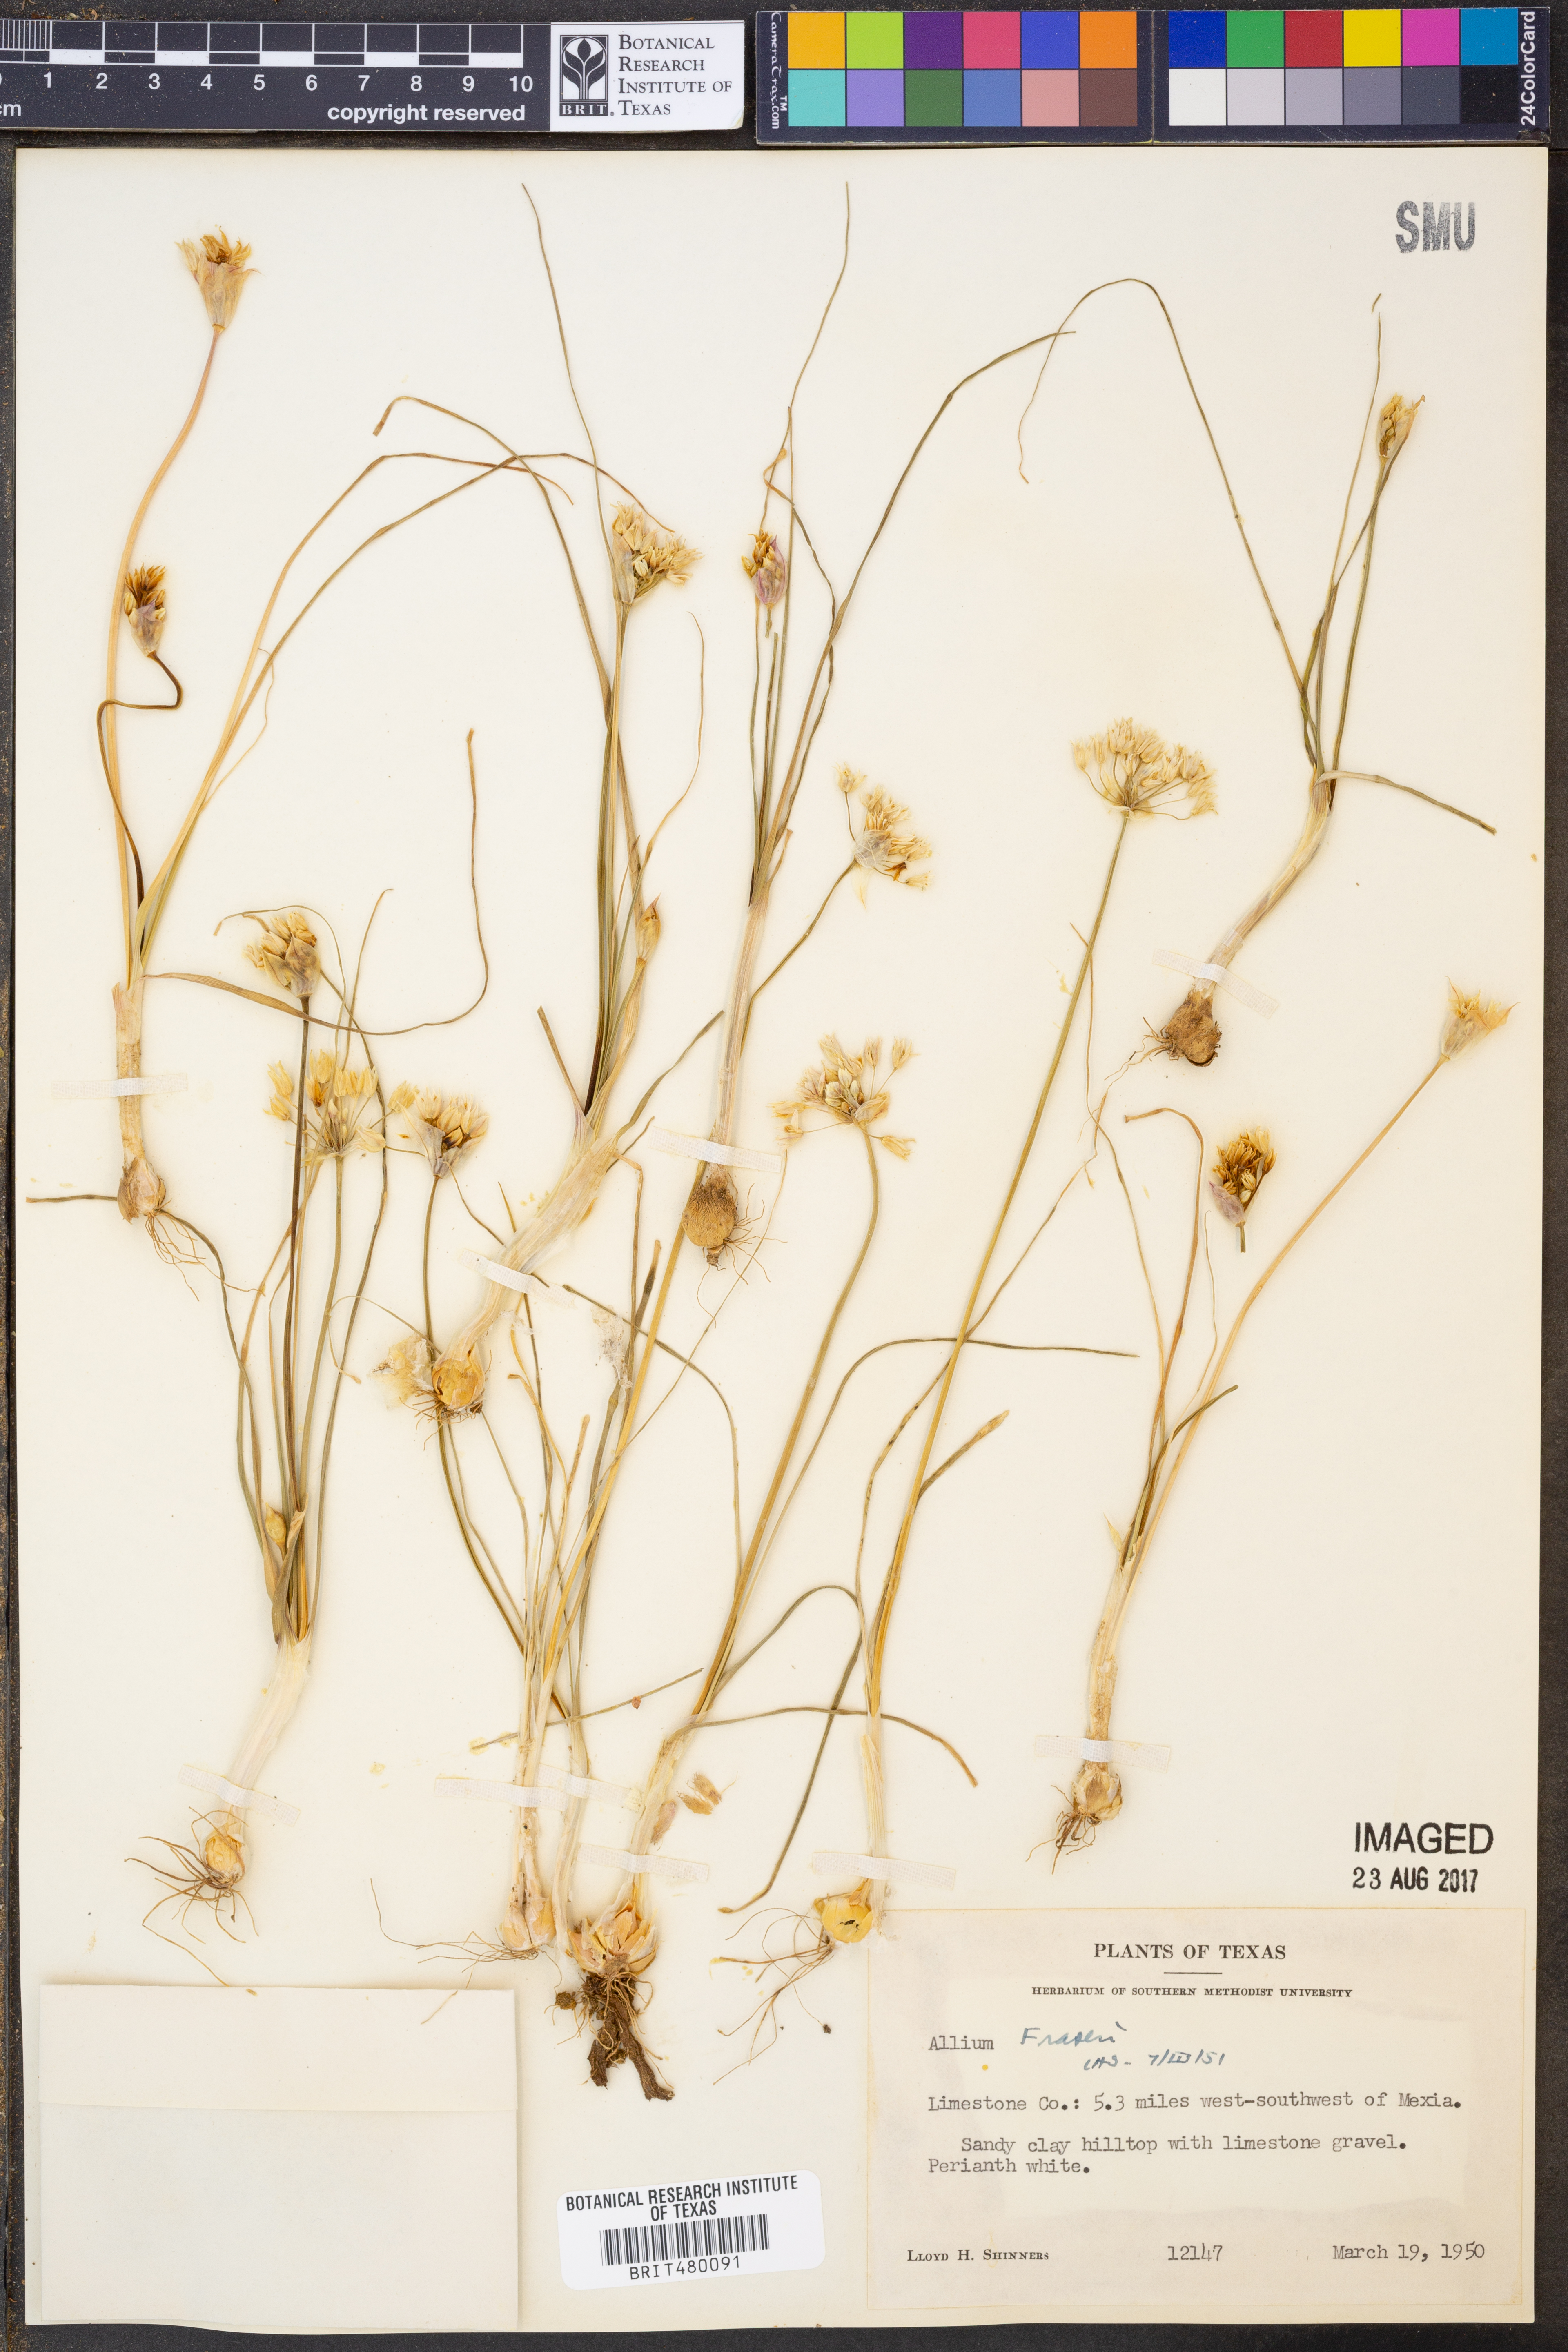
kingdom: Plantae
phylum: Tracheophyta
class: Liliopsida
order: Asparagales
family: Amaryllidaceae
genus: Allium
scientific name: Allium fraseri
